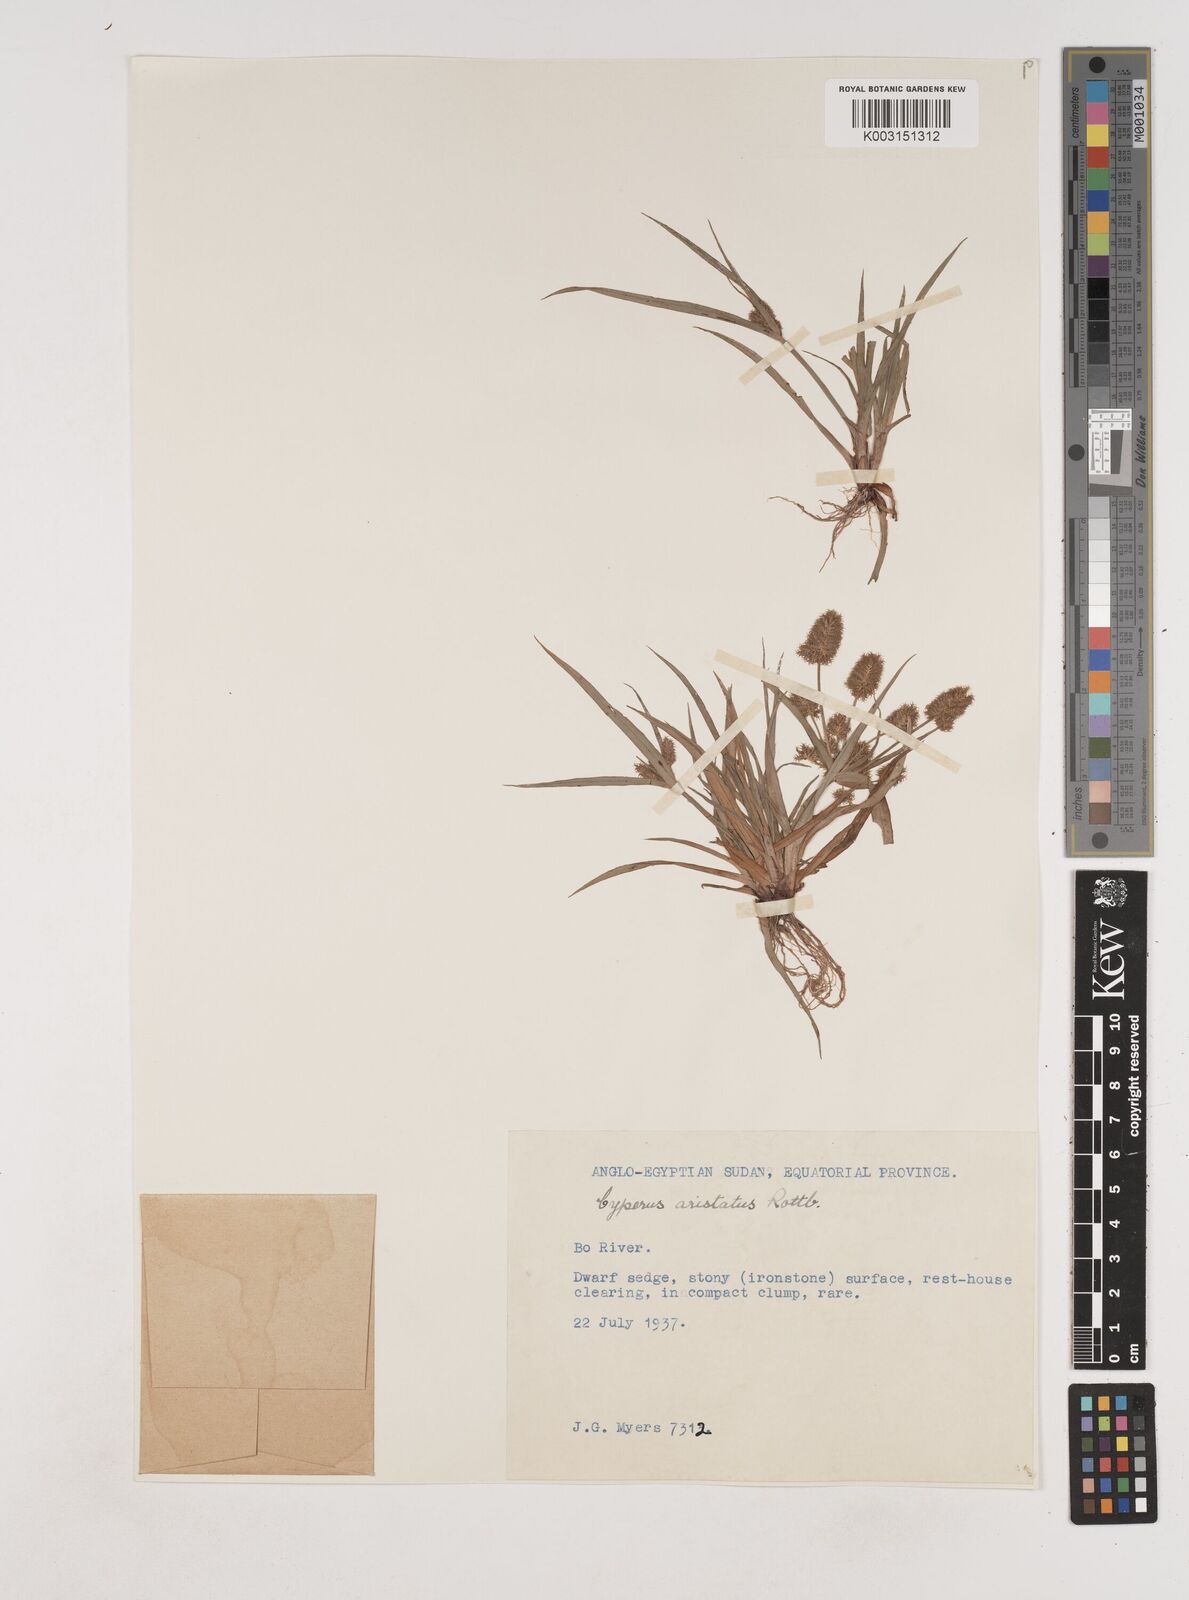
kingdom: Plantae
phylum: Tracheophyta
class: Liliopsida
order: Poales
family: Cyperaceae
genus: Cyperus
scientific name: Cyperus squarrosus
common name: Awned cyperus
